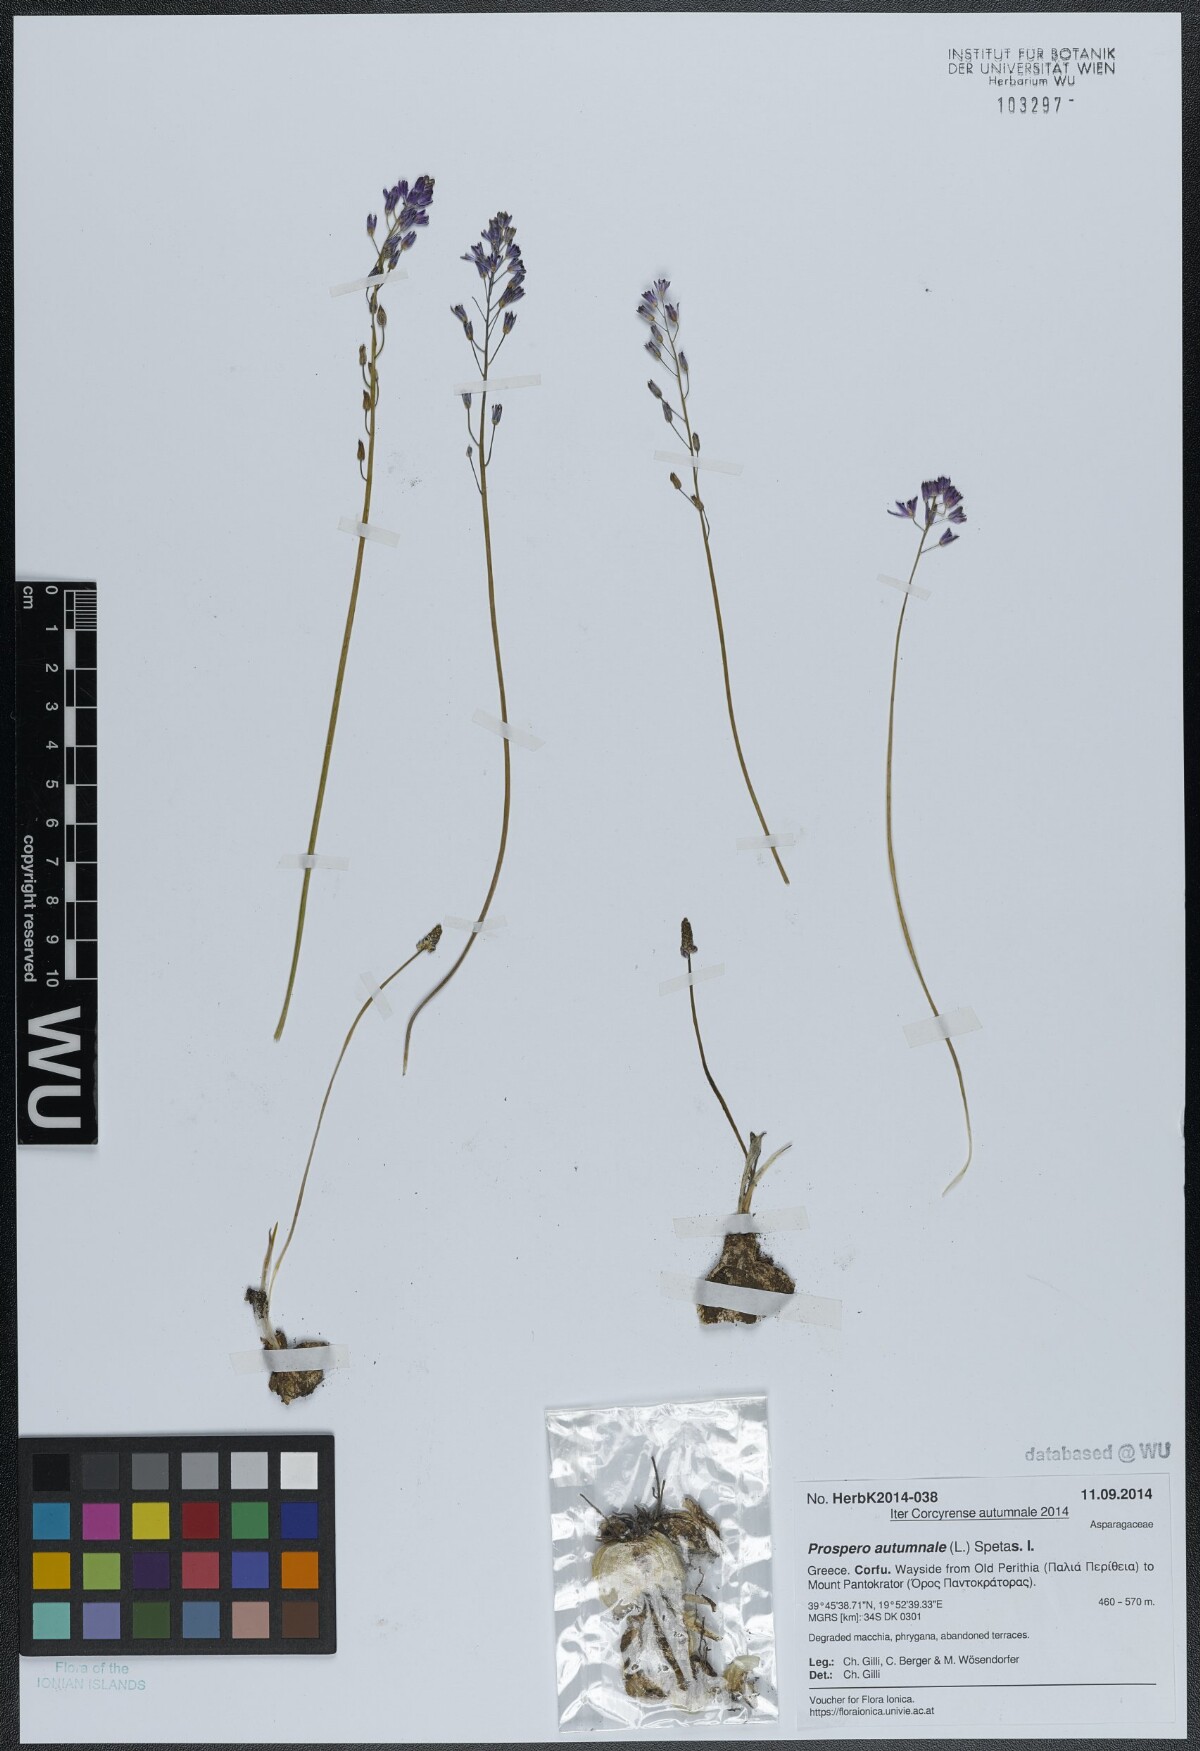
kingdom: Plantae
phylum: Tracheophyta
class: Liliopsida
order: Asparagales
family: Asparagaceae
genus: Prospero
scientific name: Prospero autumnale
